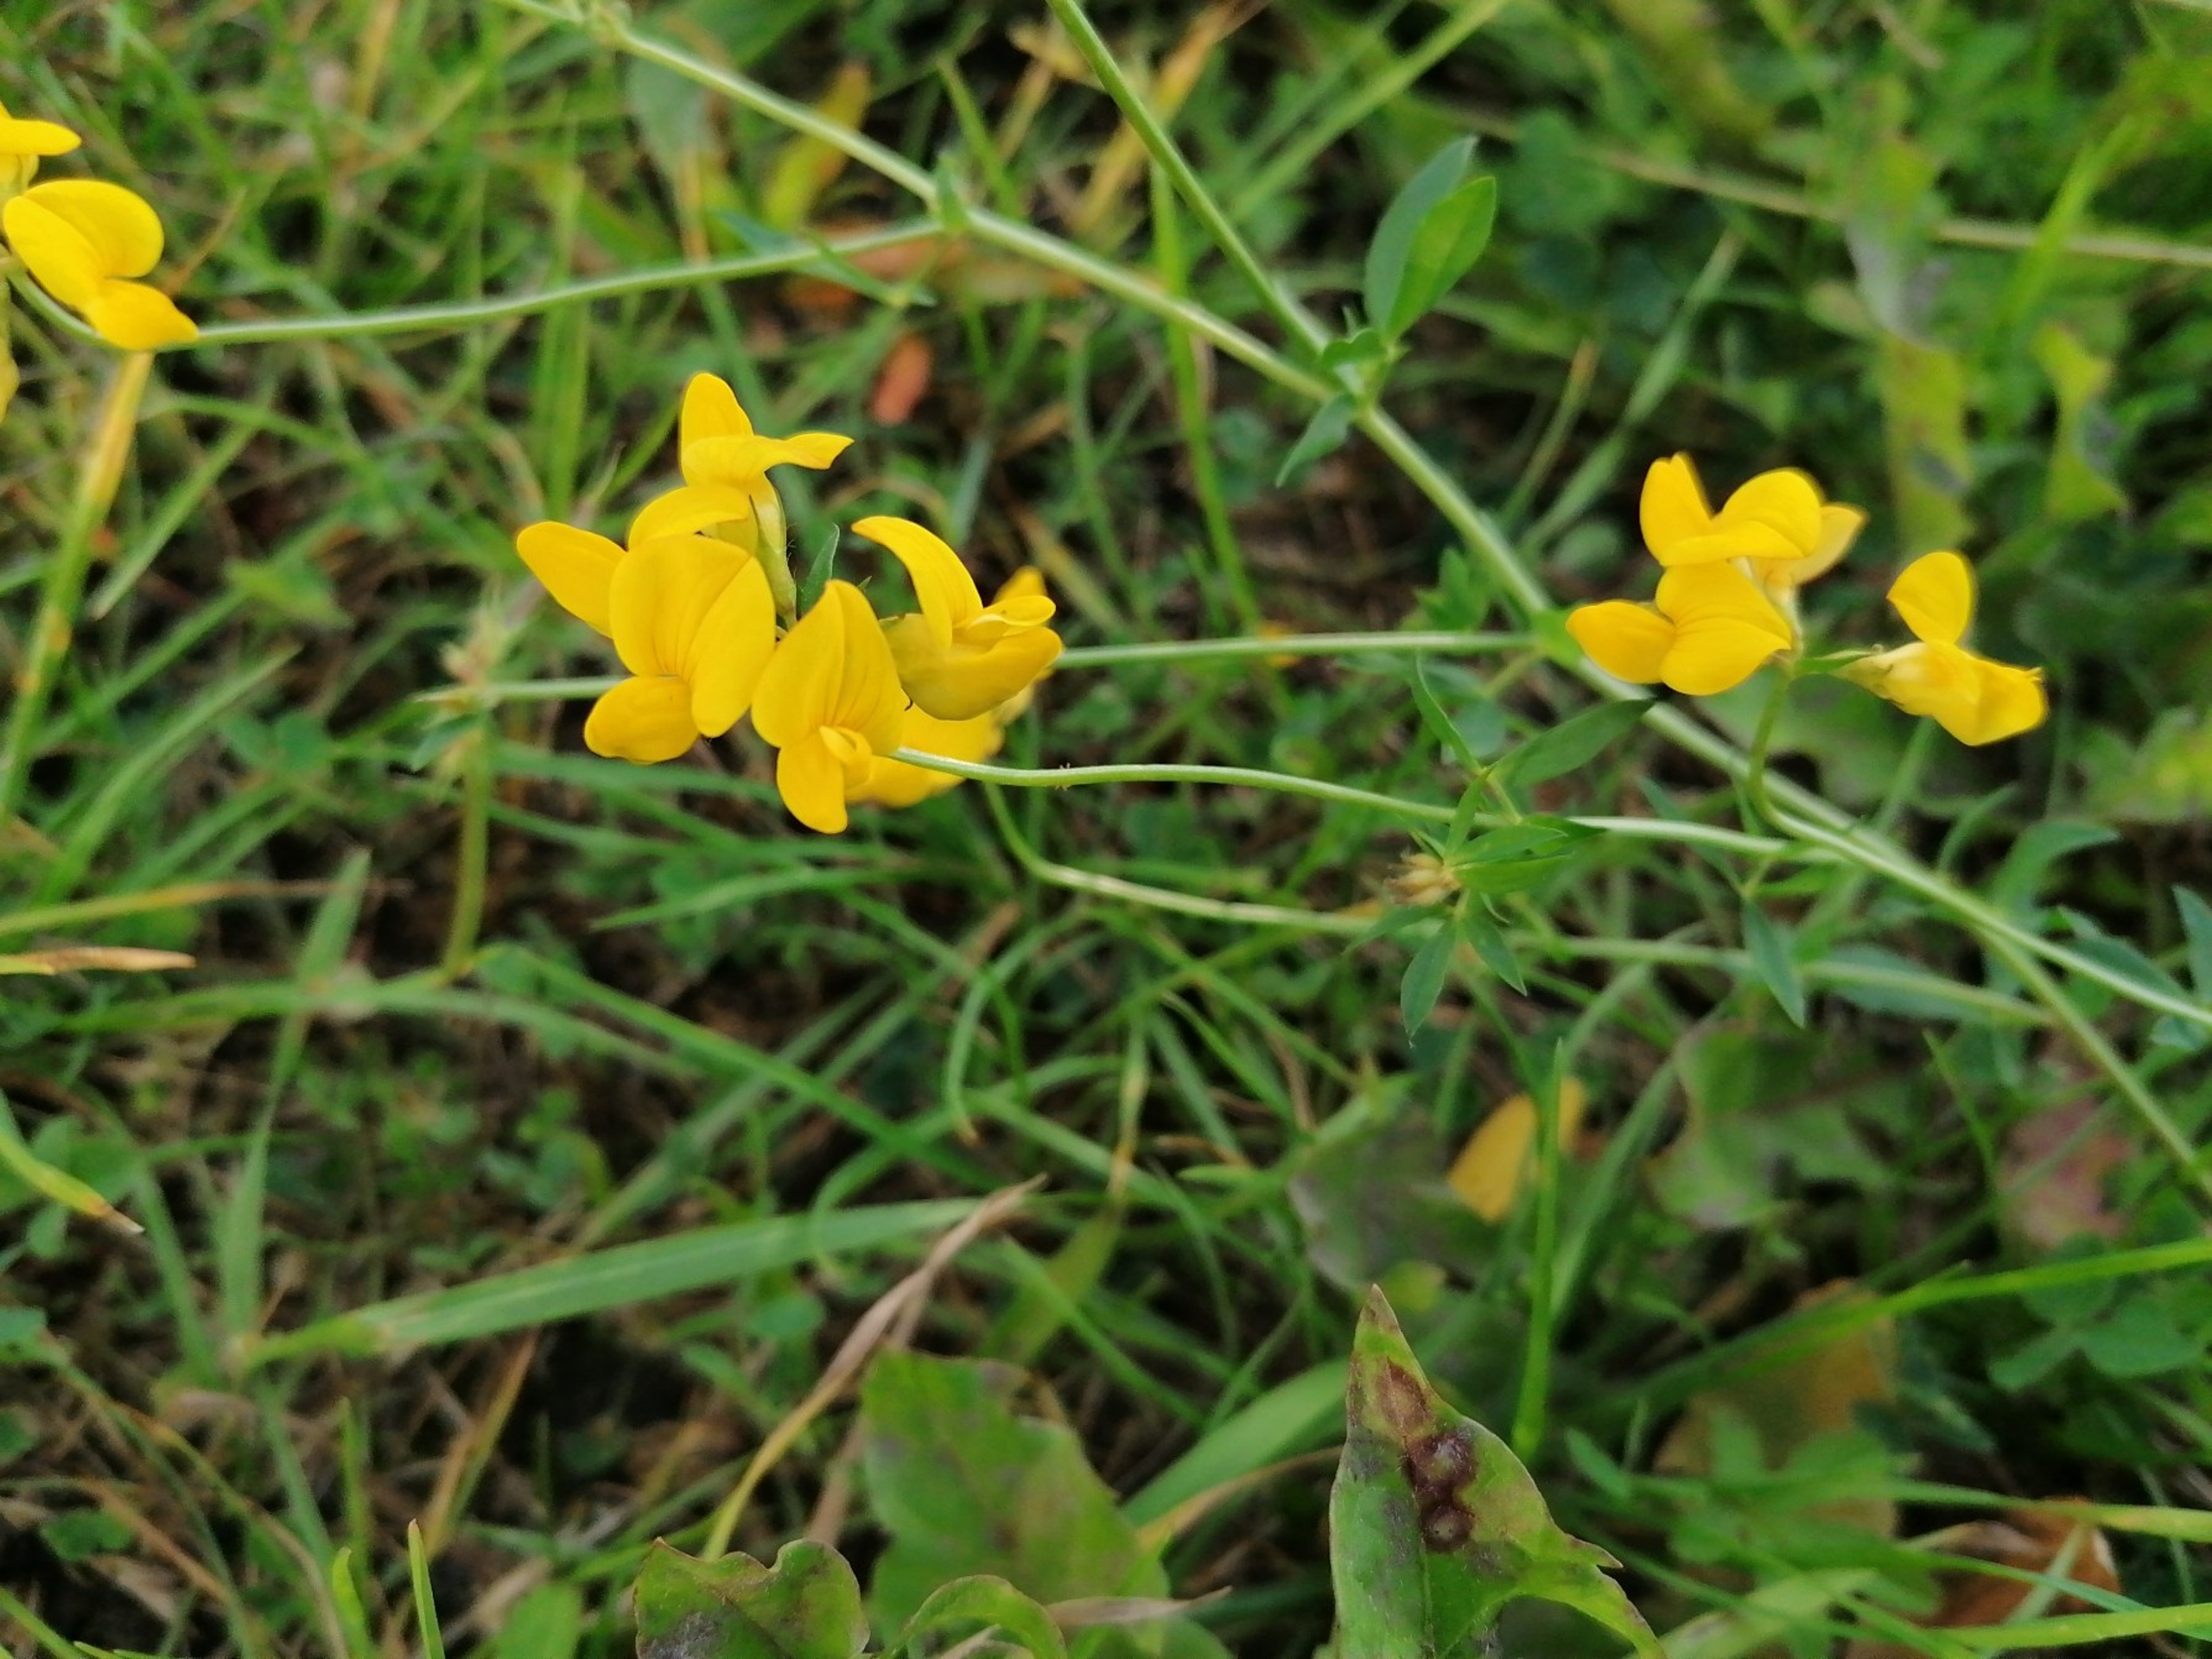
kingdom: Plantae
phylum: Tracheophyta
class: Magnoliopsida
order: Fabales
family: Fabaceae
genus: Lotus
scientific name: Lotus corniculatus
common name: Almindelig kællingetand
